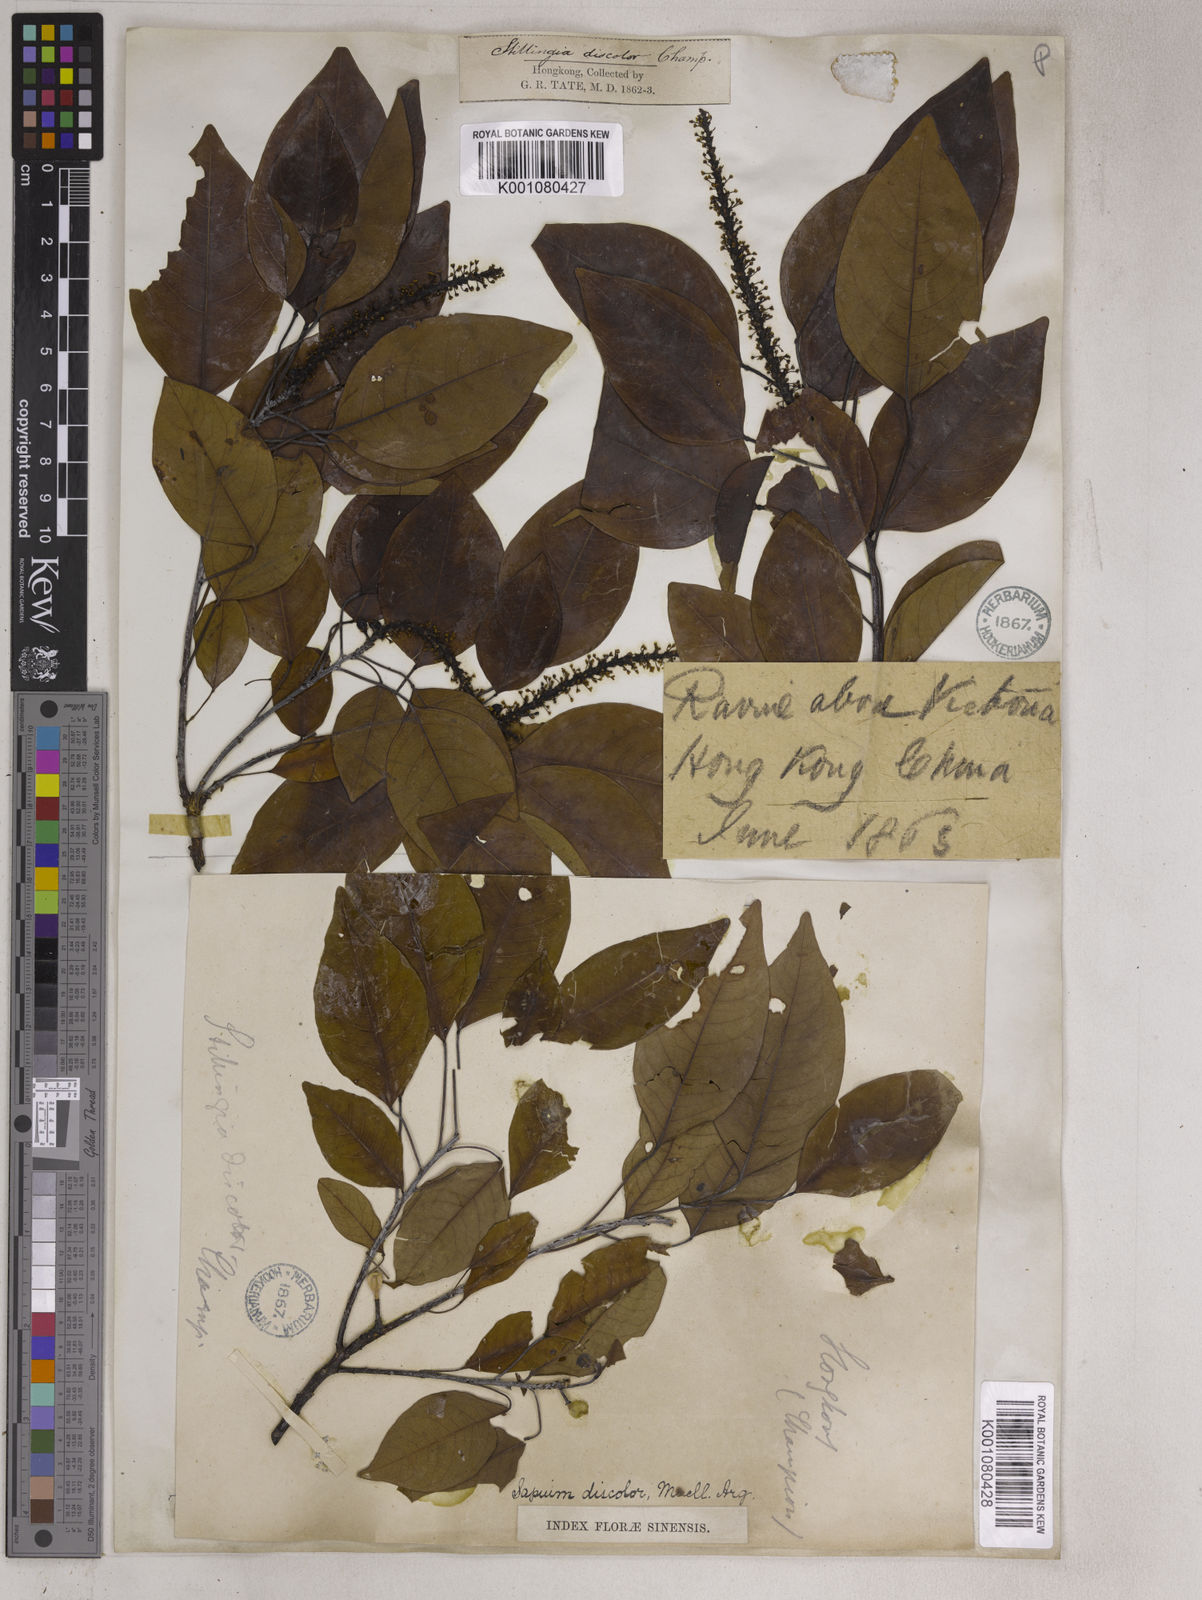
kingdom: Plantae
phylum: Tracheophyta
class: Magnoliopsida
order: Malpighiales
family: Euphorbiaceae
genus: Triadica
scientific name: Triadica cochinchinensis
